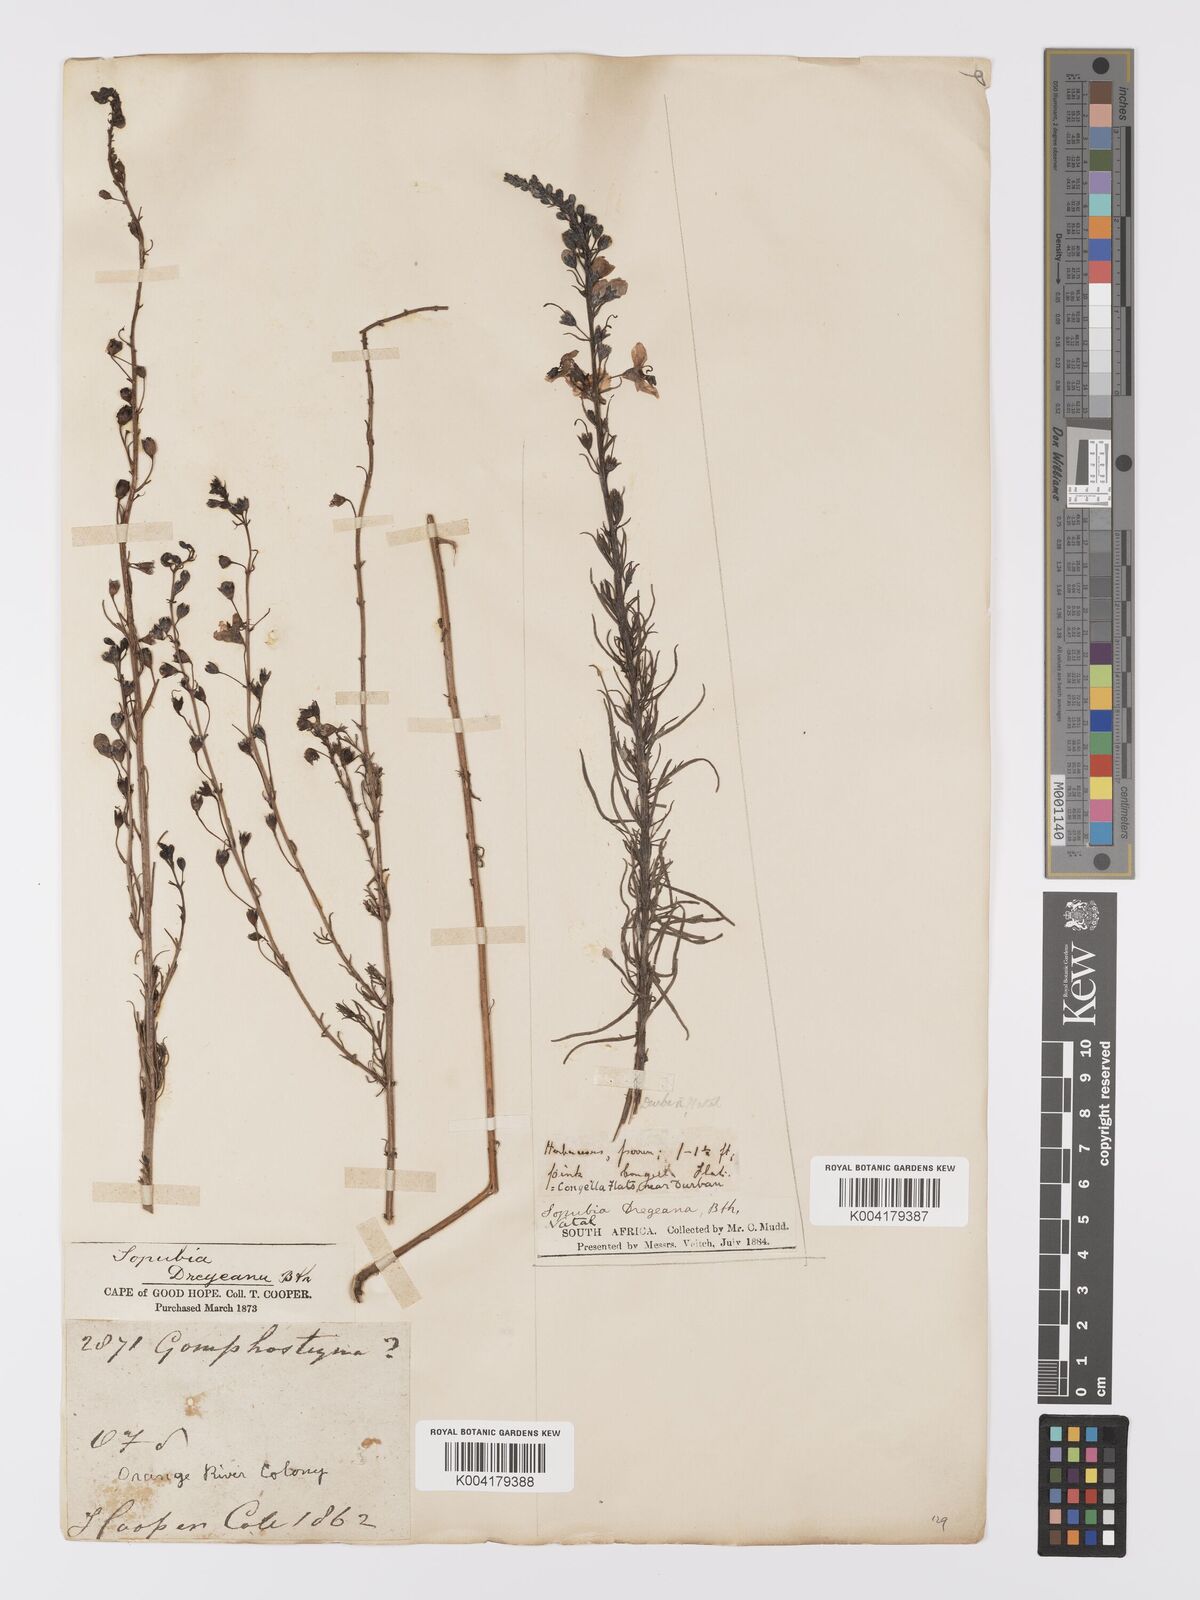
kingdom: Plantae
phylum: Tracheophyta
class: Magnoliopsida
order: Lamiales
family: Orobanchaceae
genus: Sopubia
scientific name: Sopubia simplex
